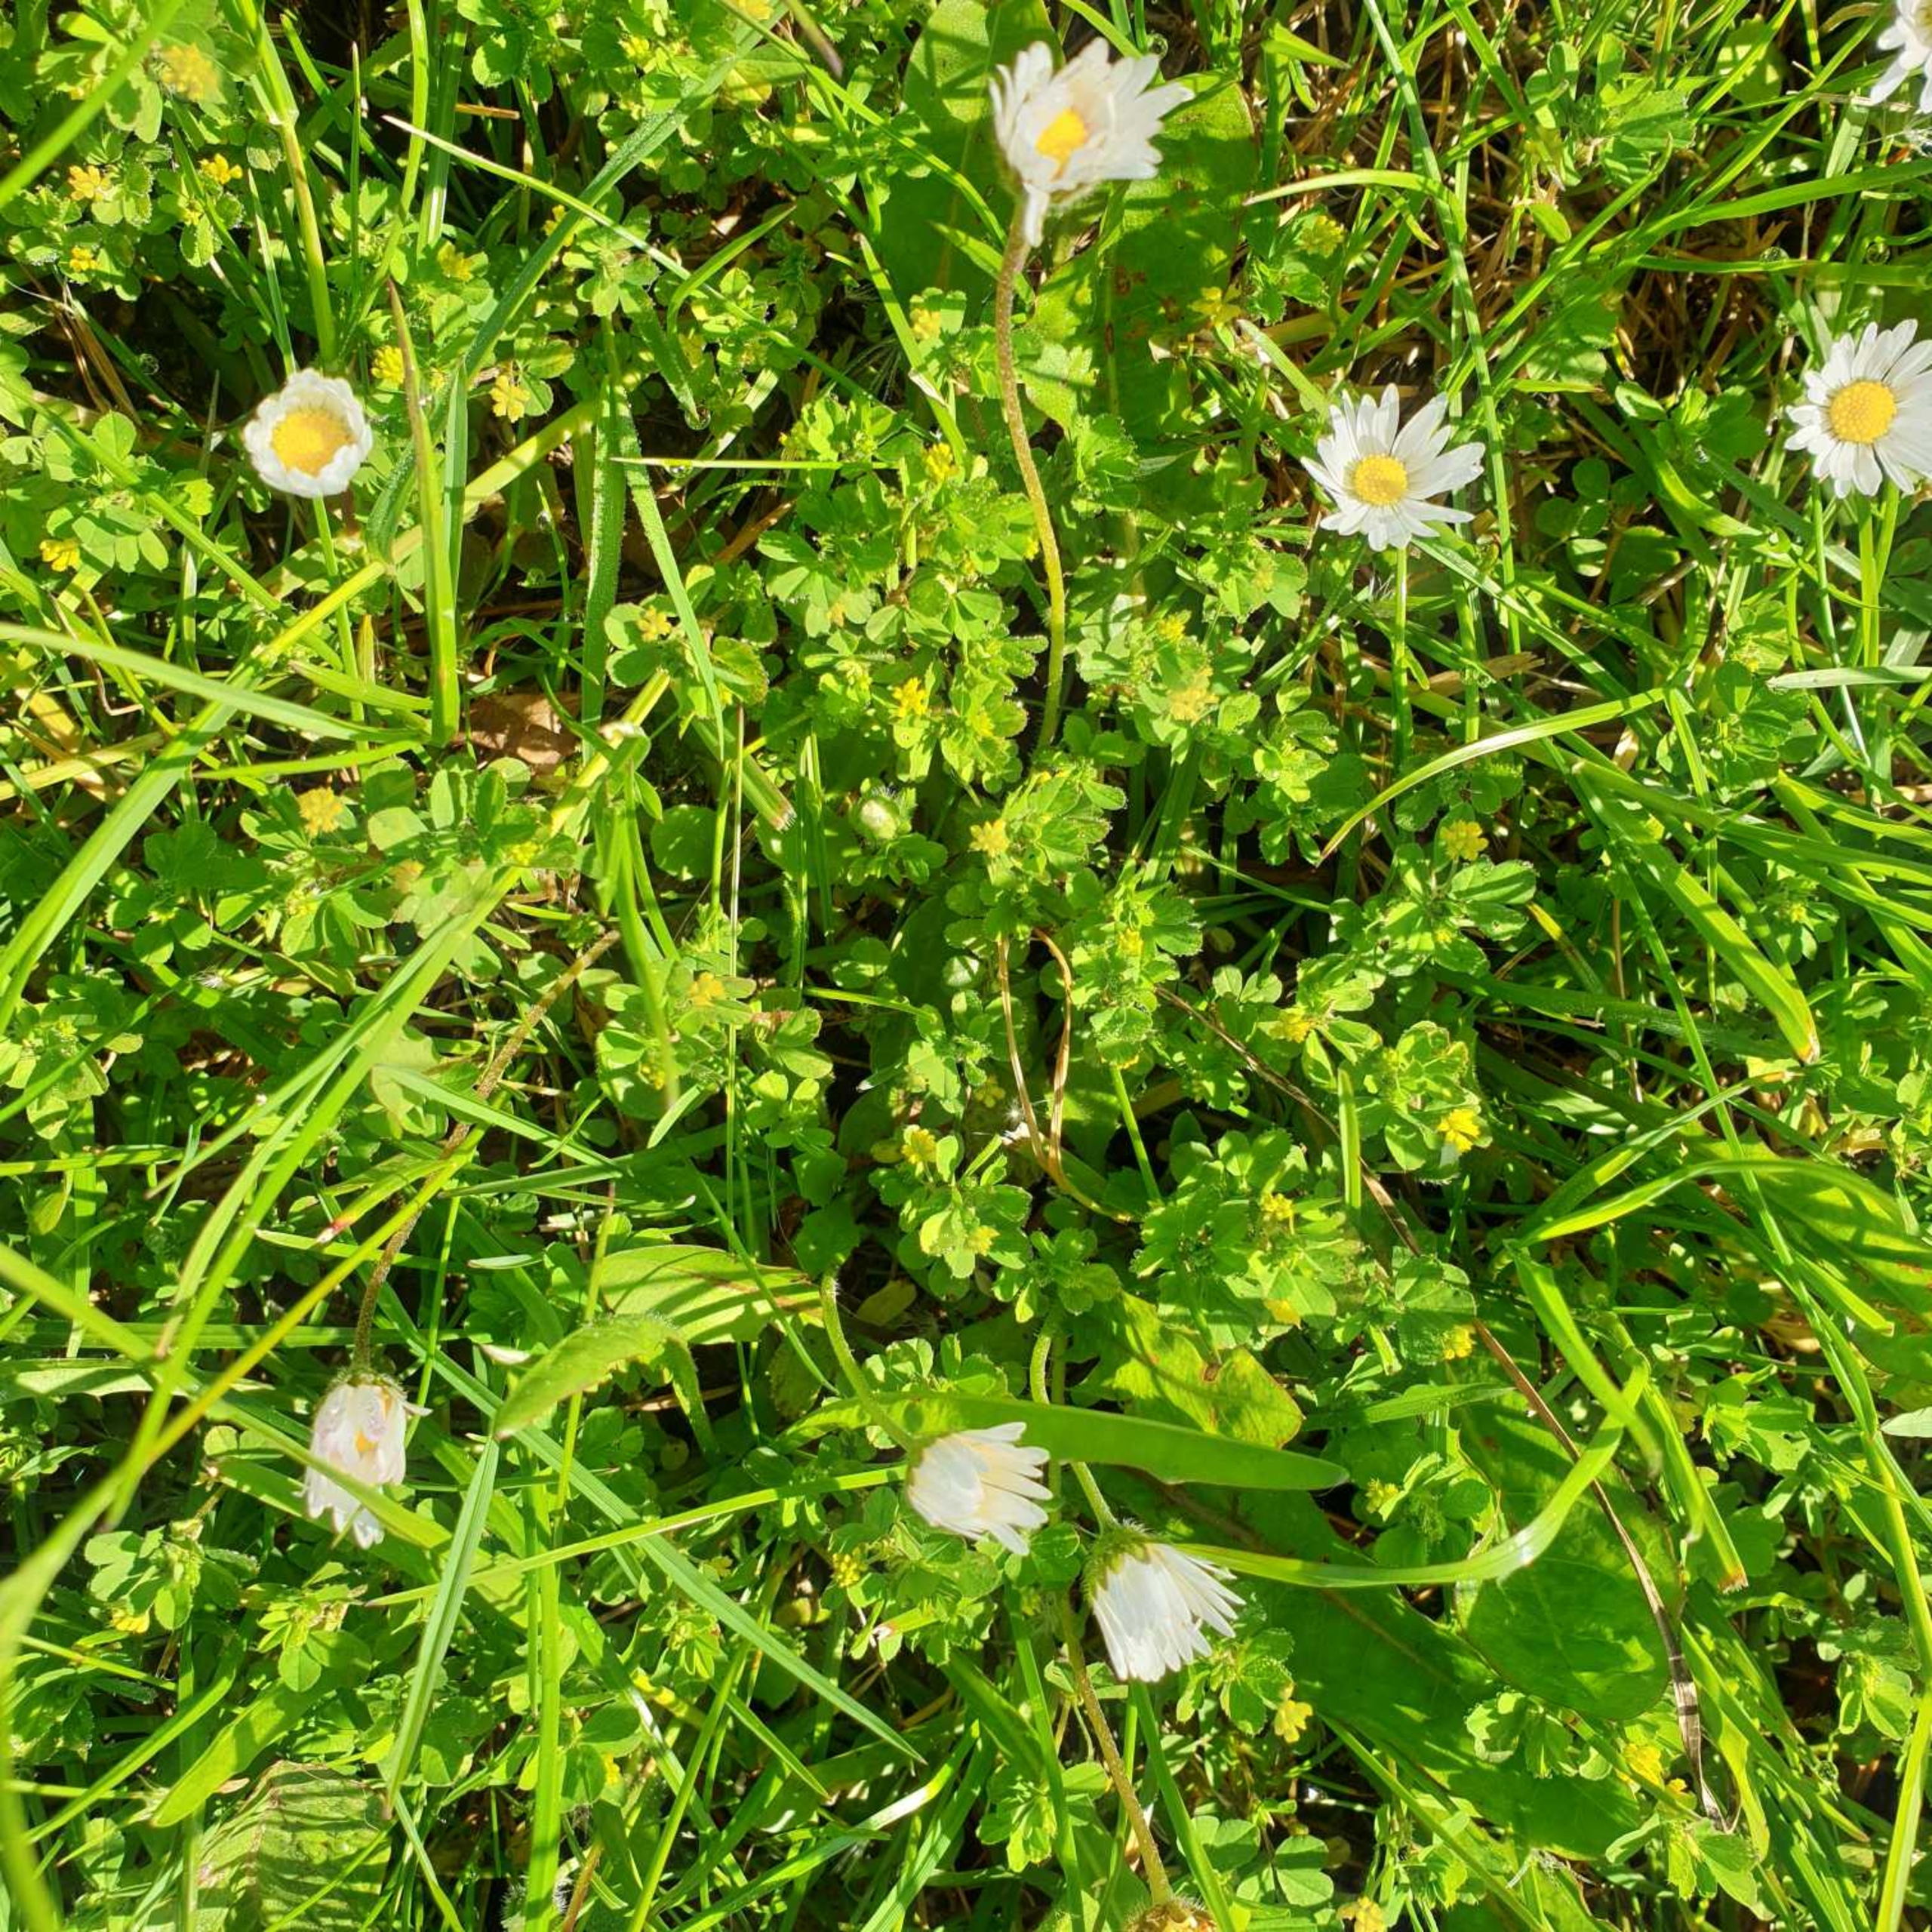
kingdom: Plantae
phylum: Tracheophyta
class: Magnoliopsida
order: Fabales
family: Fabaceae
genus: Medicago
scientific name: Medicago lupulina
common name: Humle-sneglebælg
